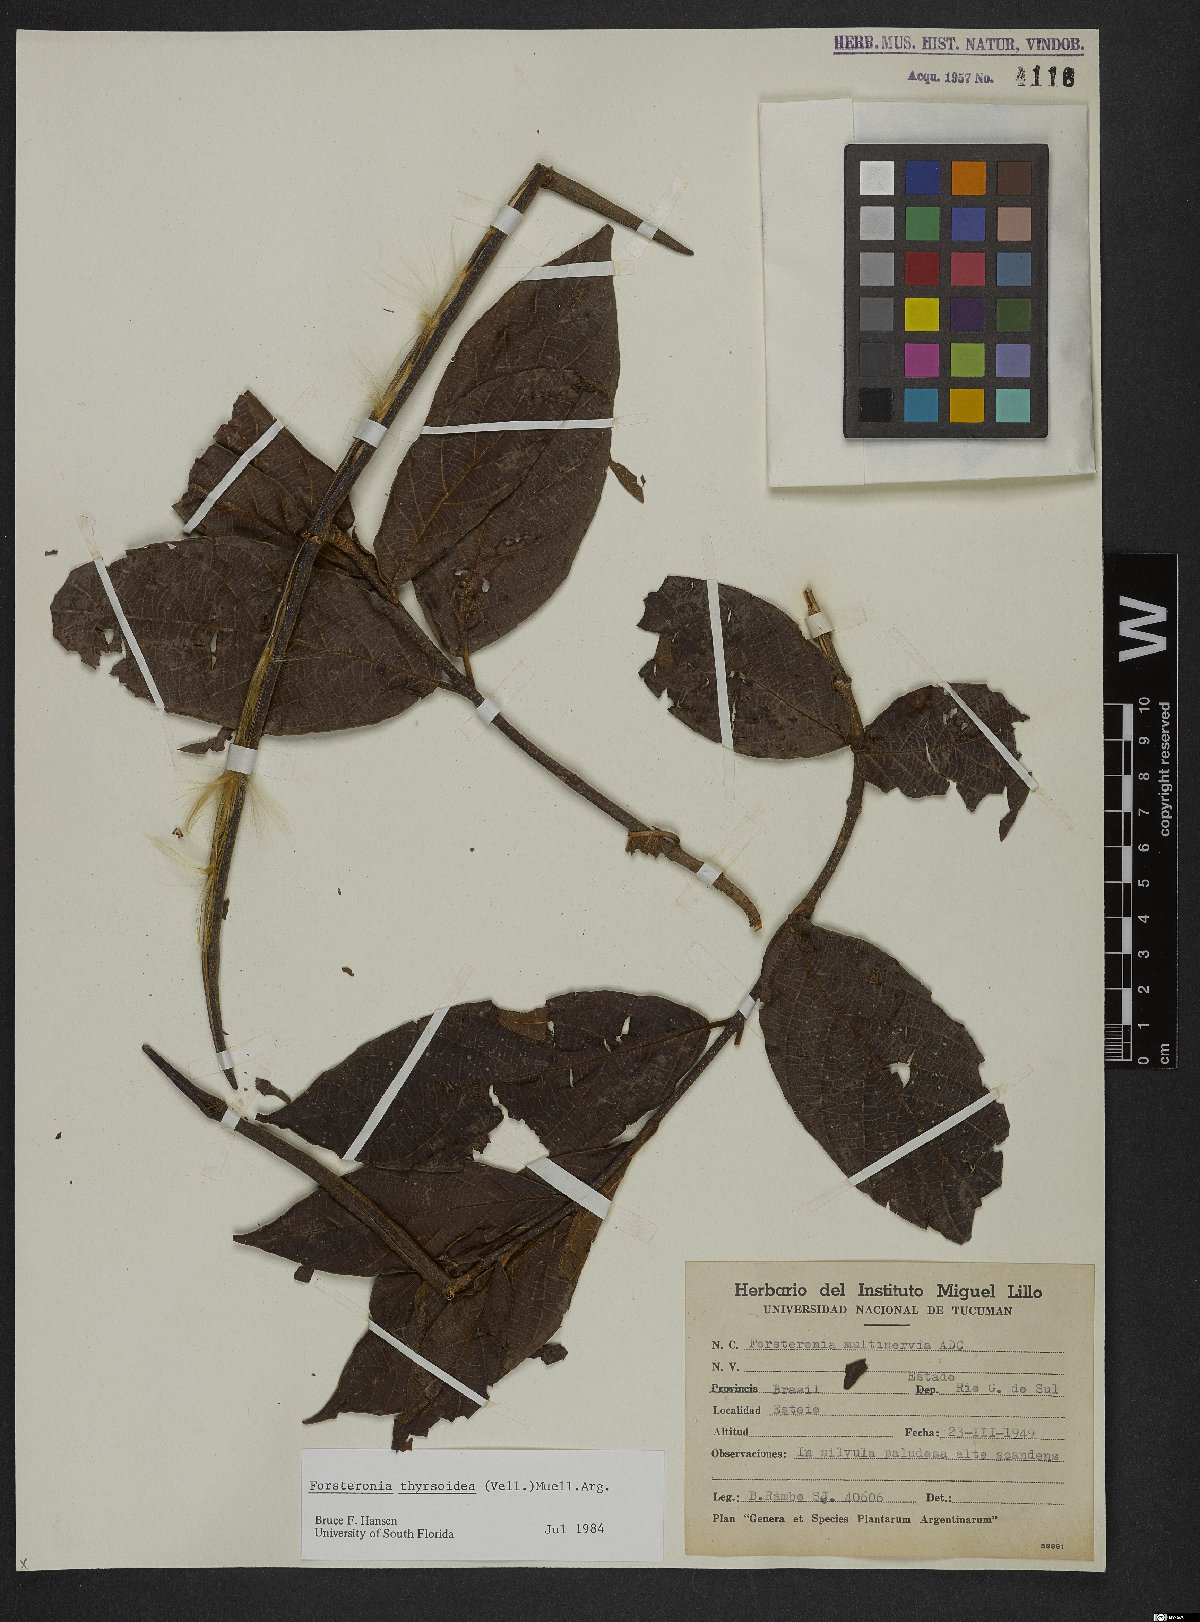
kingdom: Plantae
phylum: Tracheophyta
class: Magnoliopsida
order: Gentianales
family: Apocynaceae
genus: Forsteronia
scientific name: Forsteronia thyrsoidea
